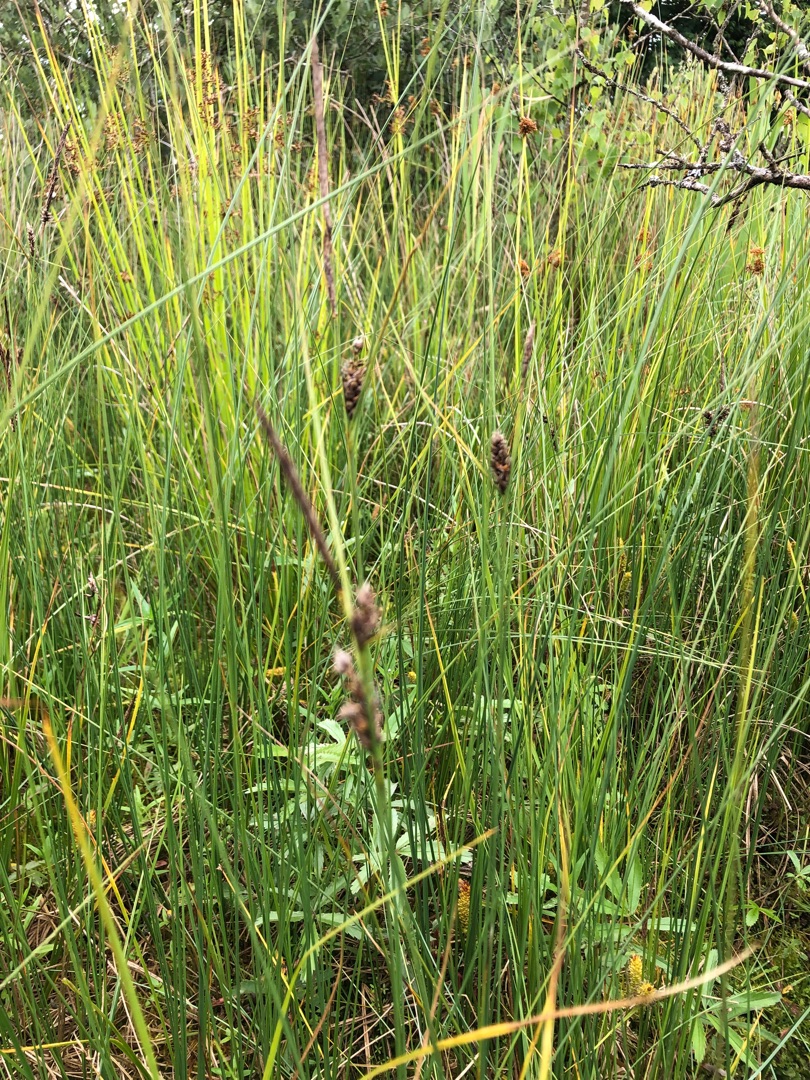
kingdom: Plantae
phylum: Tracheophyta
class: Liliopsida
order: Poales
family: Cyperaceae
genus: Carex
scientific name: Carex lasiocarpa
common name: Tråd-star
